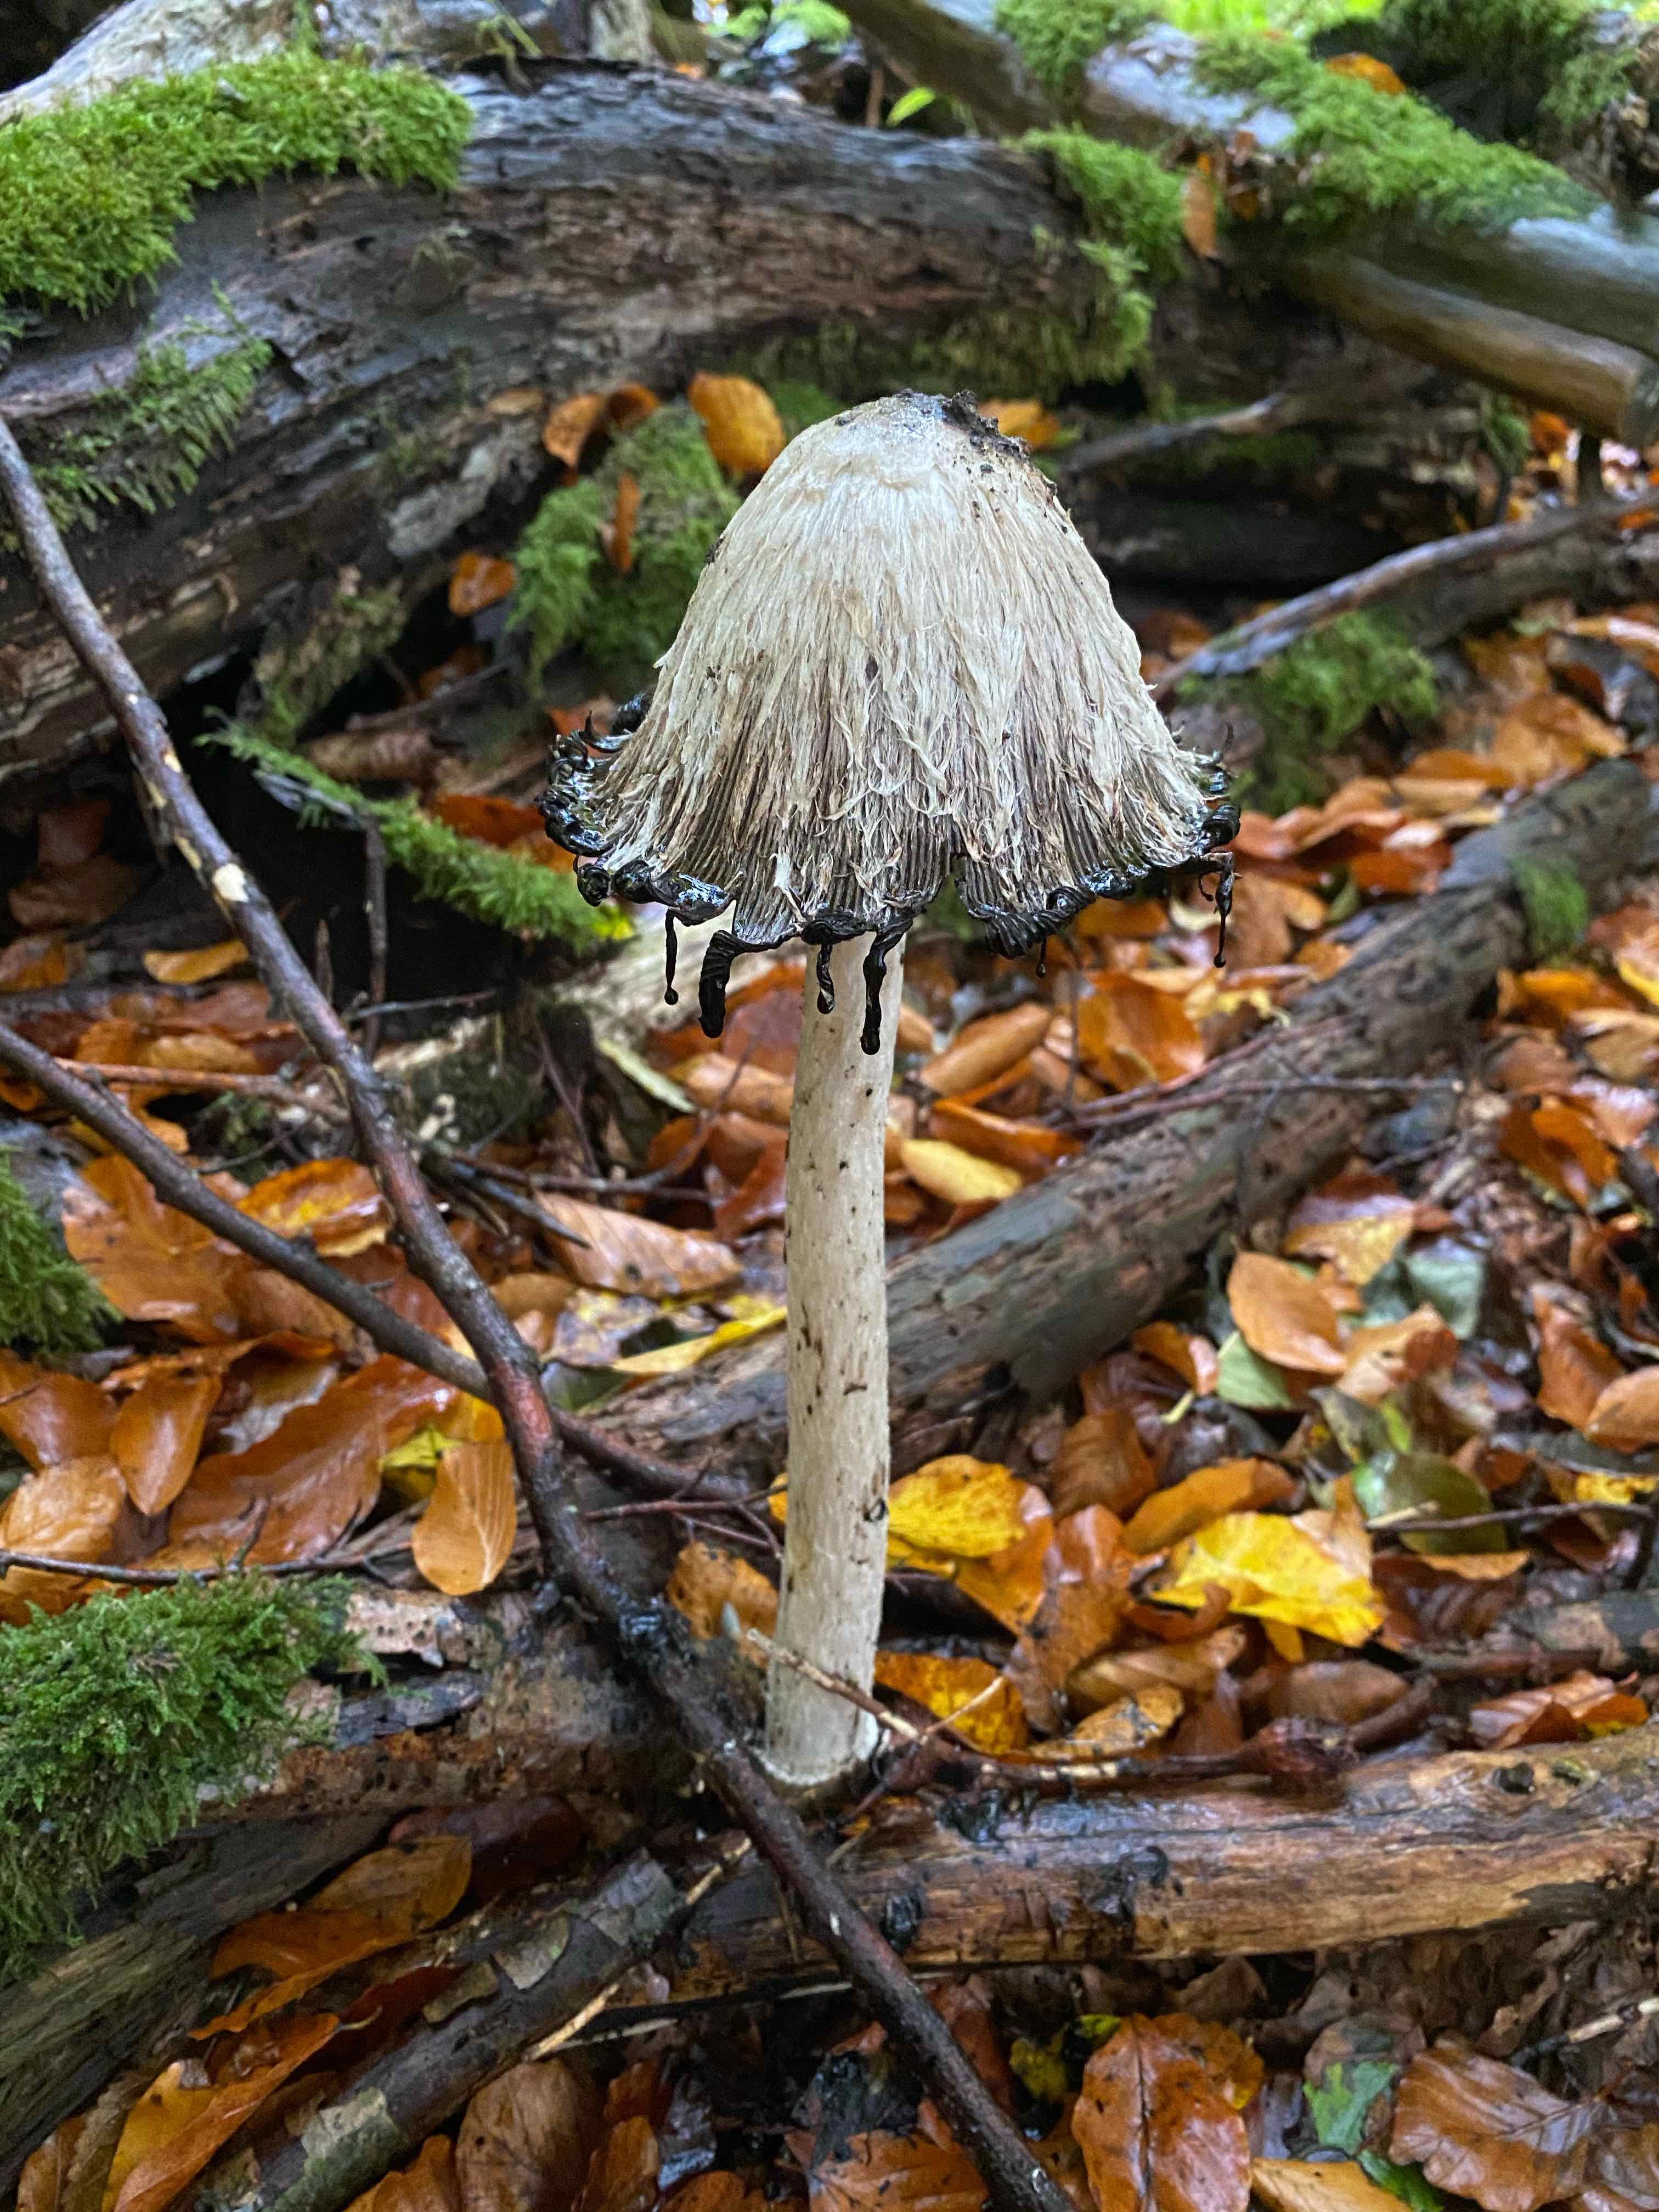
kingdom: Fungi
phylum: Basidiomycota
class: Agaricomycetes
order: Agaricales
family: Agaricaceae
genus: Coprinus
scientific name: Coprinus comatus
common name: stor parykhat
